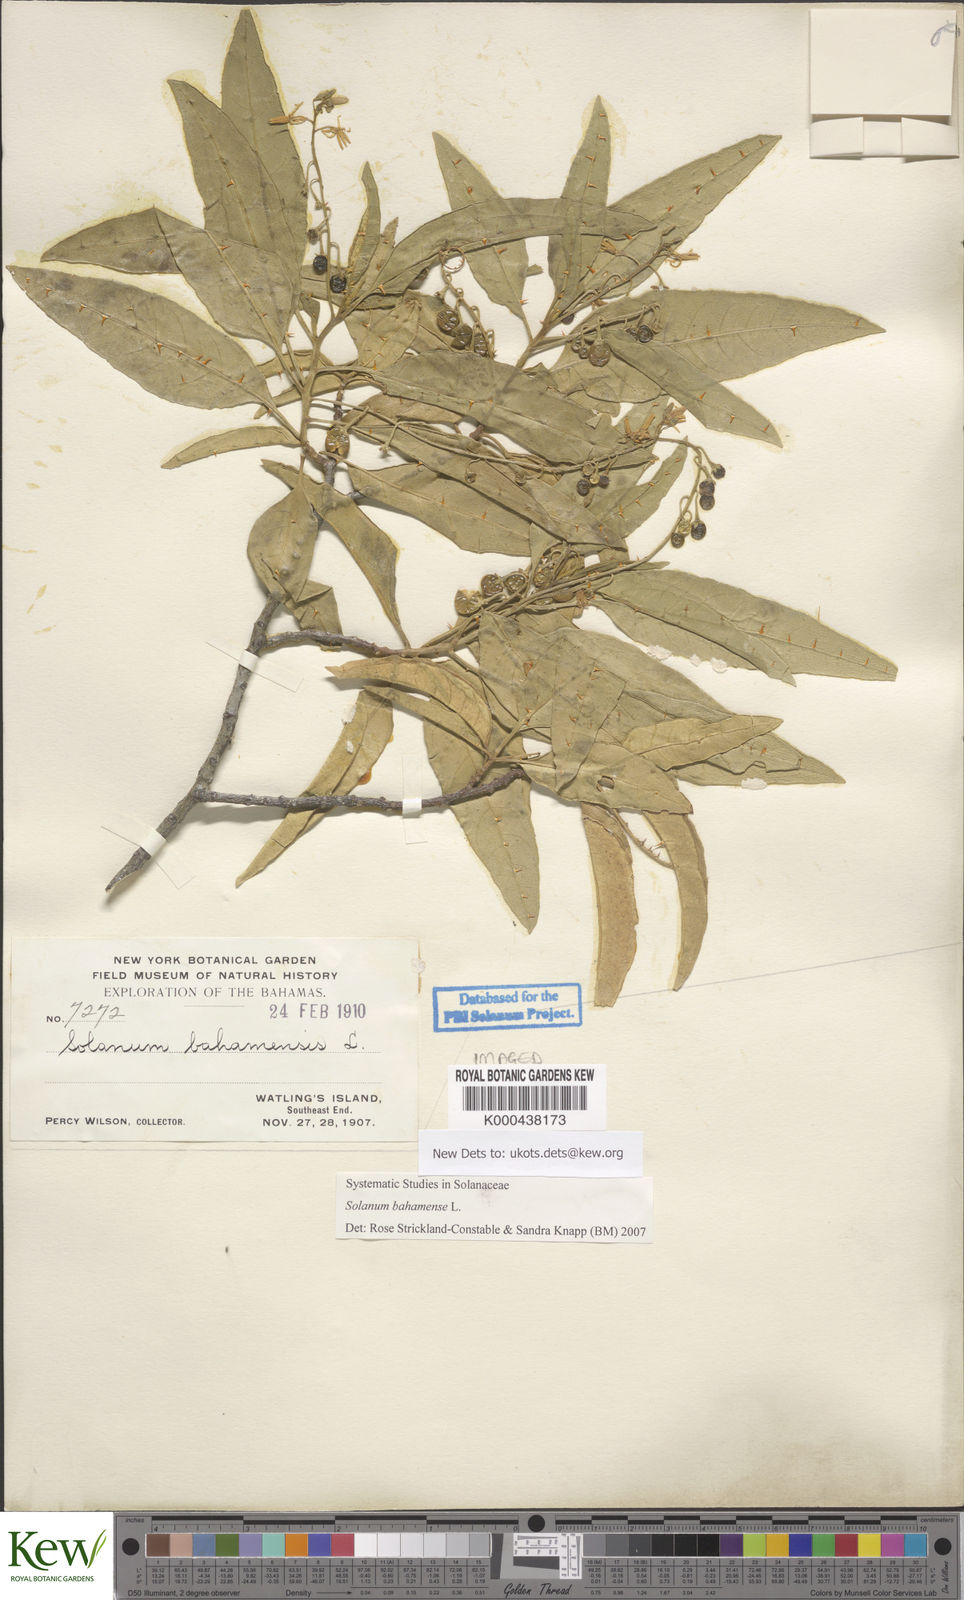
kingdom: Plantae
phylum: Tracheophyta
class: Magnoliopsida
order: Solanales
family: Solanaceae
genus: Solanum
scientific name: Solanum bahamense
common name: Canker-berry
